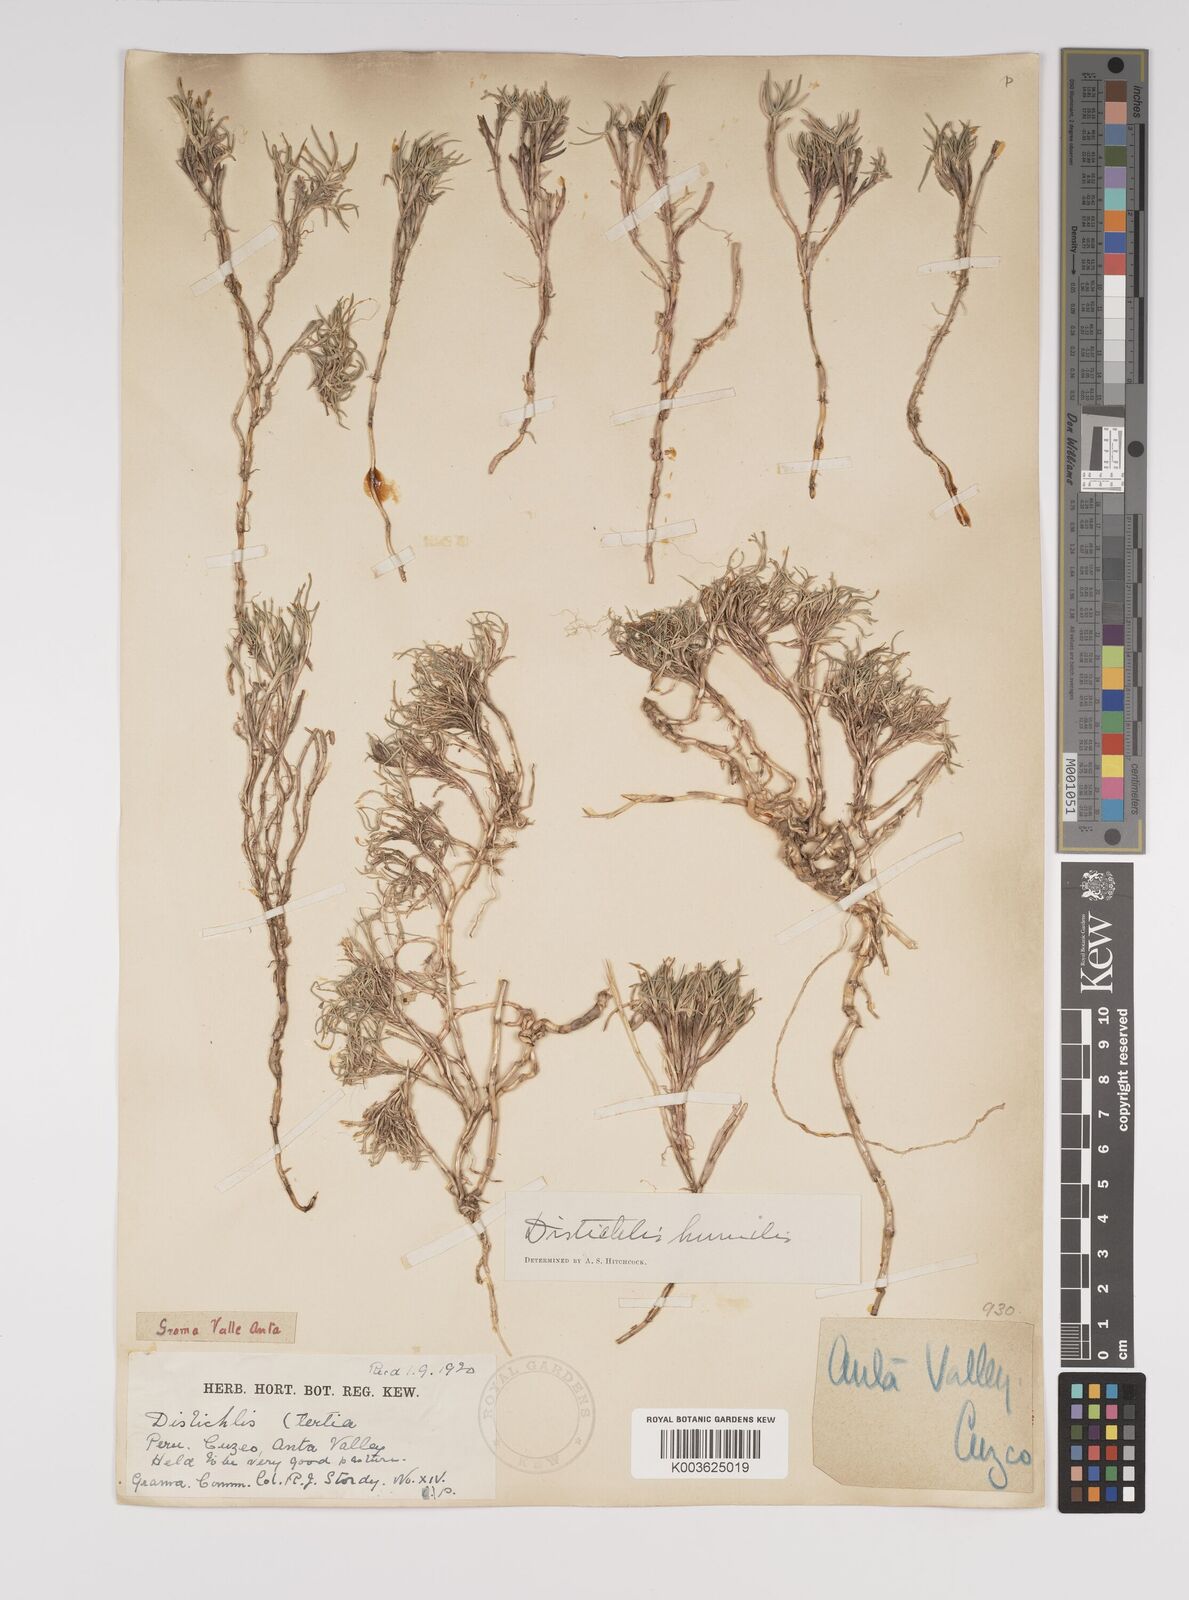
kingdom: Plantae
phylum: Tracheophyta
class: Liliopsida
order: Poales
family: Poaceae
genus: Distichlis
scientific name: Distichlis humilis
